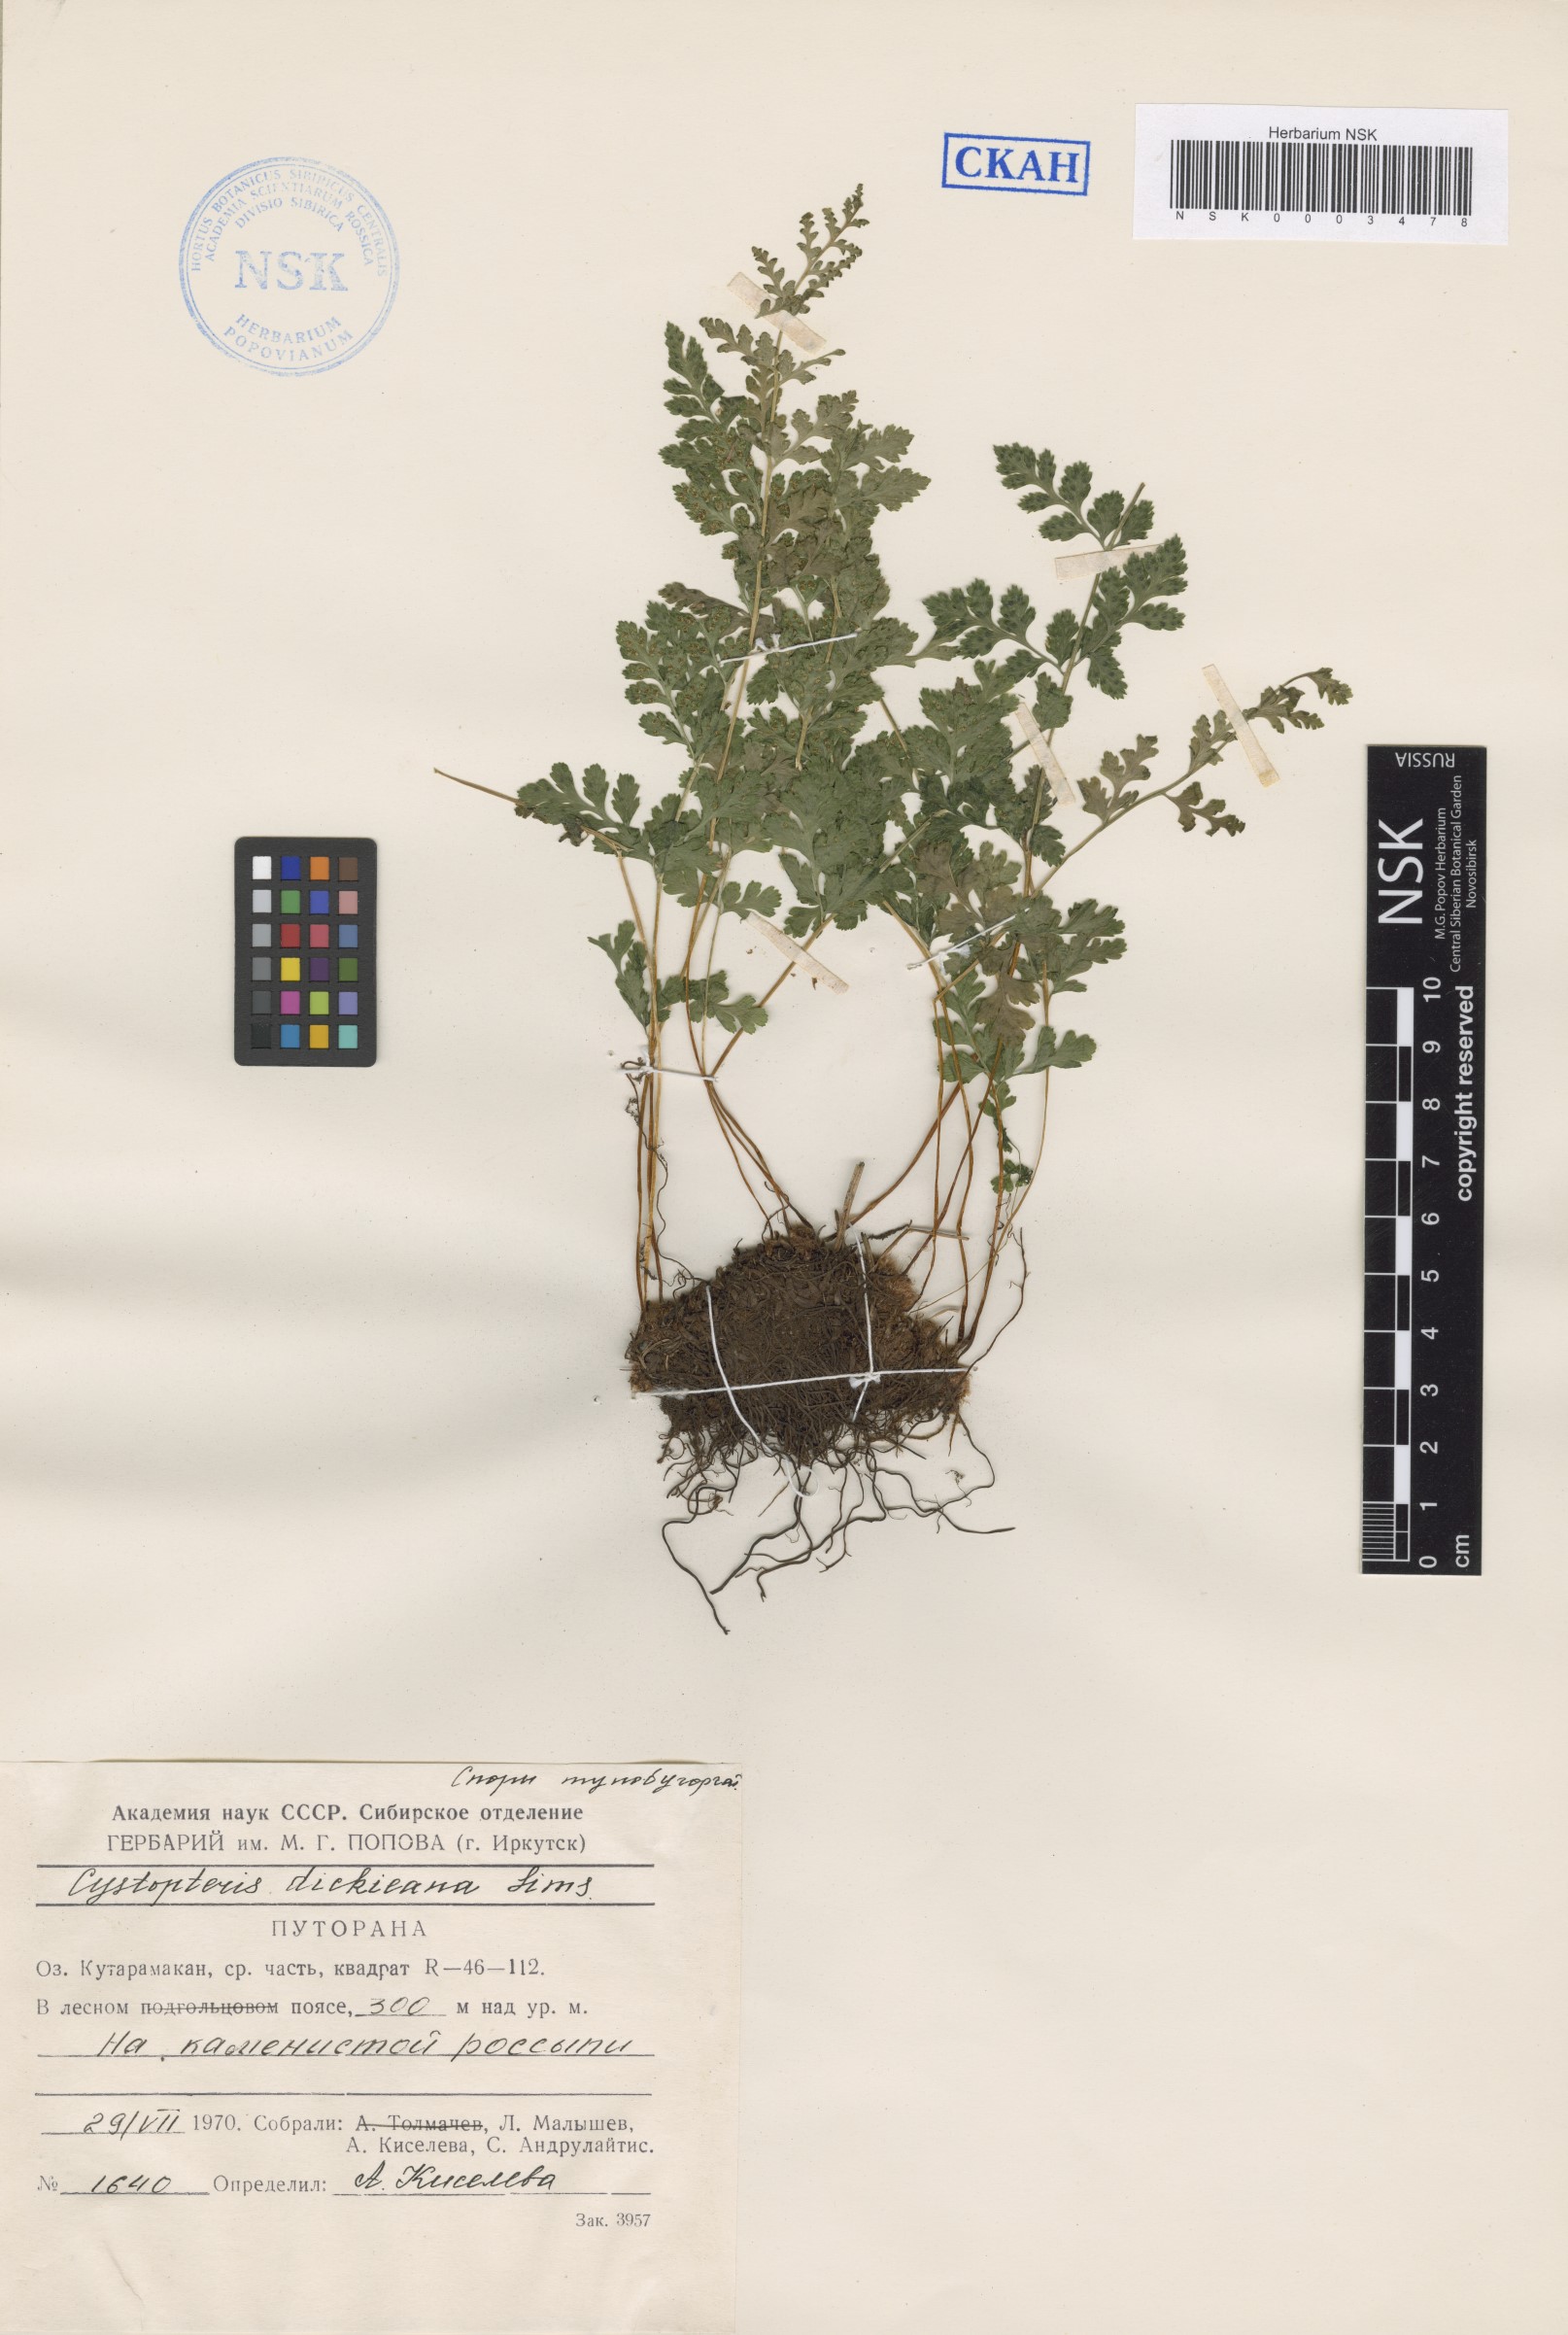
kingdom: Plantae
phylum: Tracheophyta
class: Polypodiopsida
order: Polypodiales
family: Cystopteridaceae
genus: Cystopteris
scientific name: Cystopteris dickieana
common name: Dickie's bladder-fern
